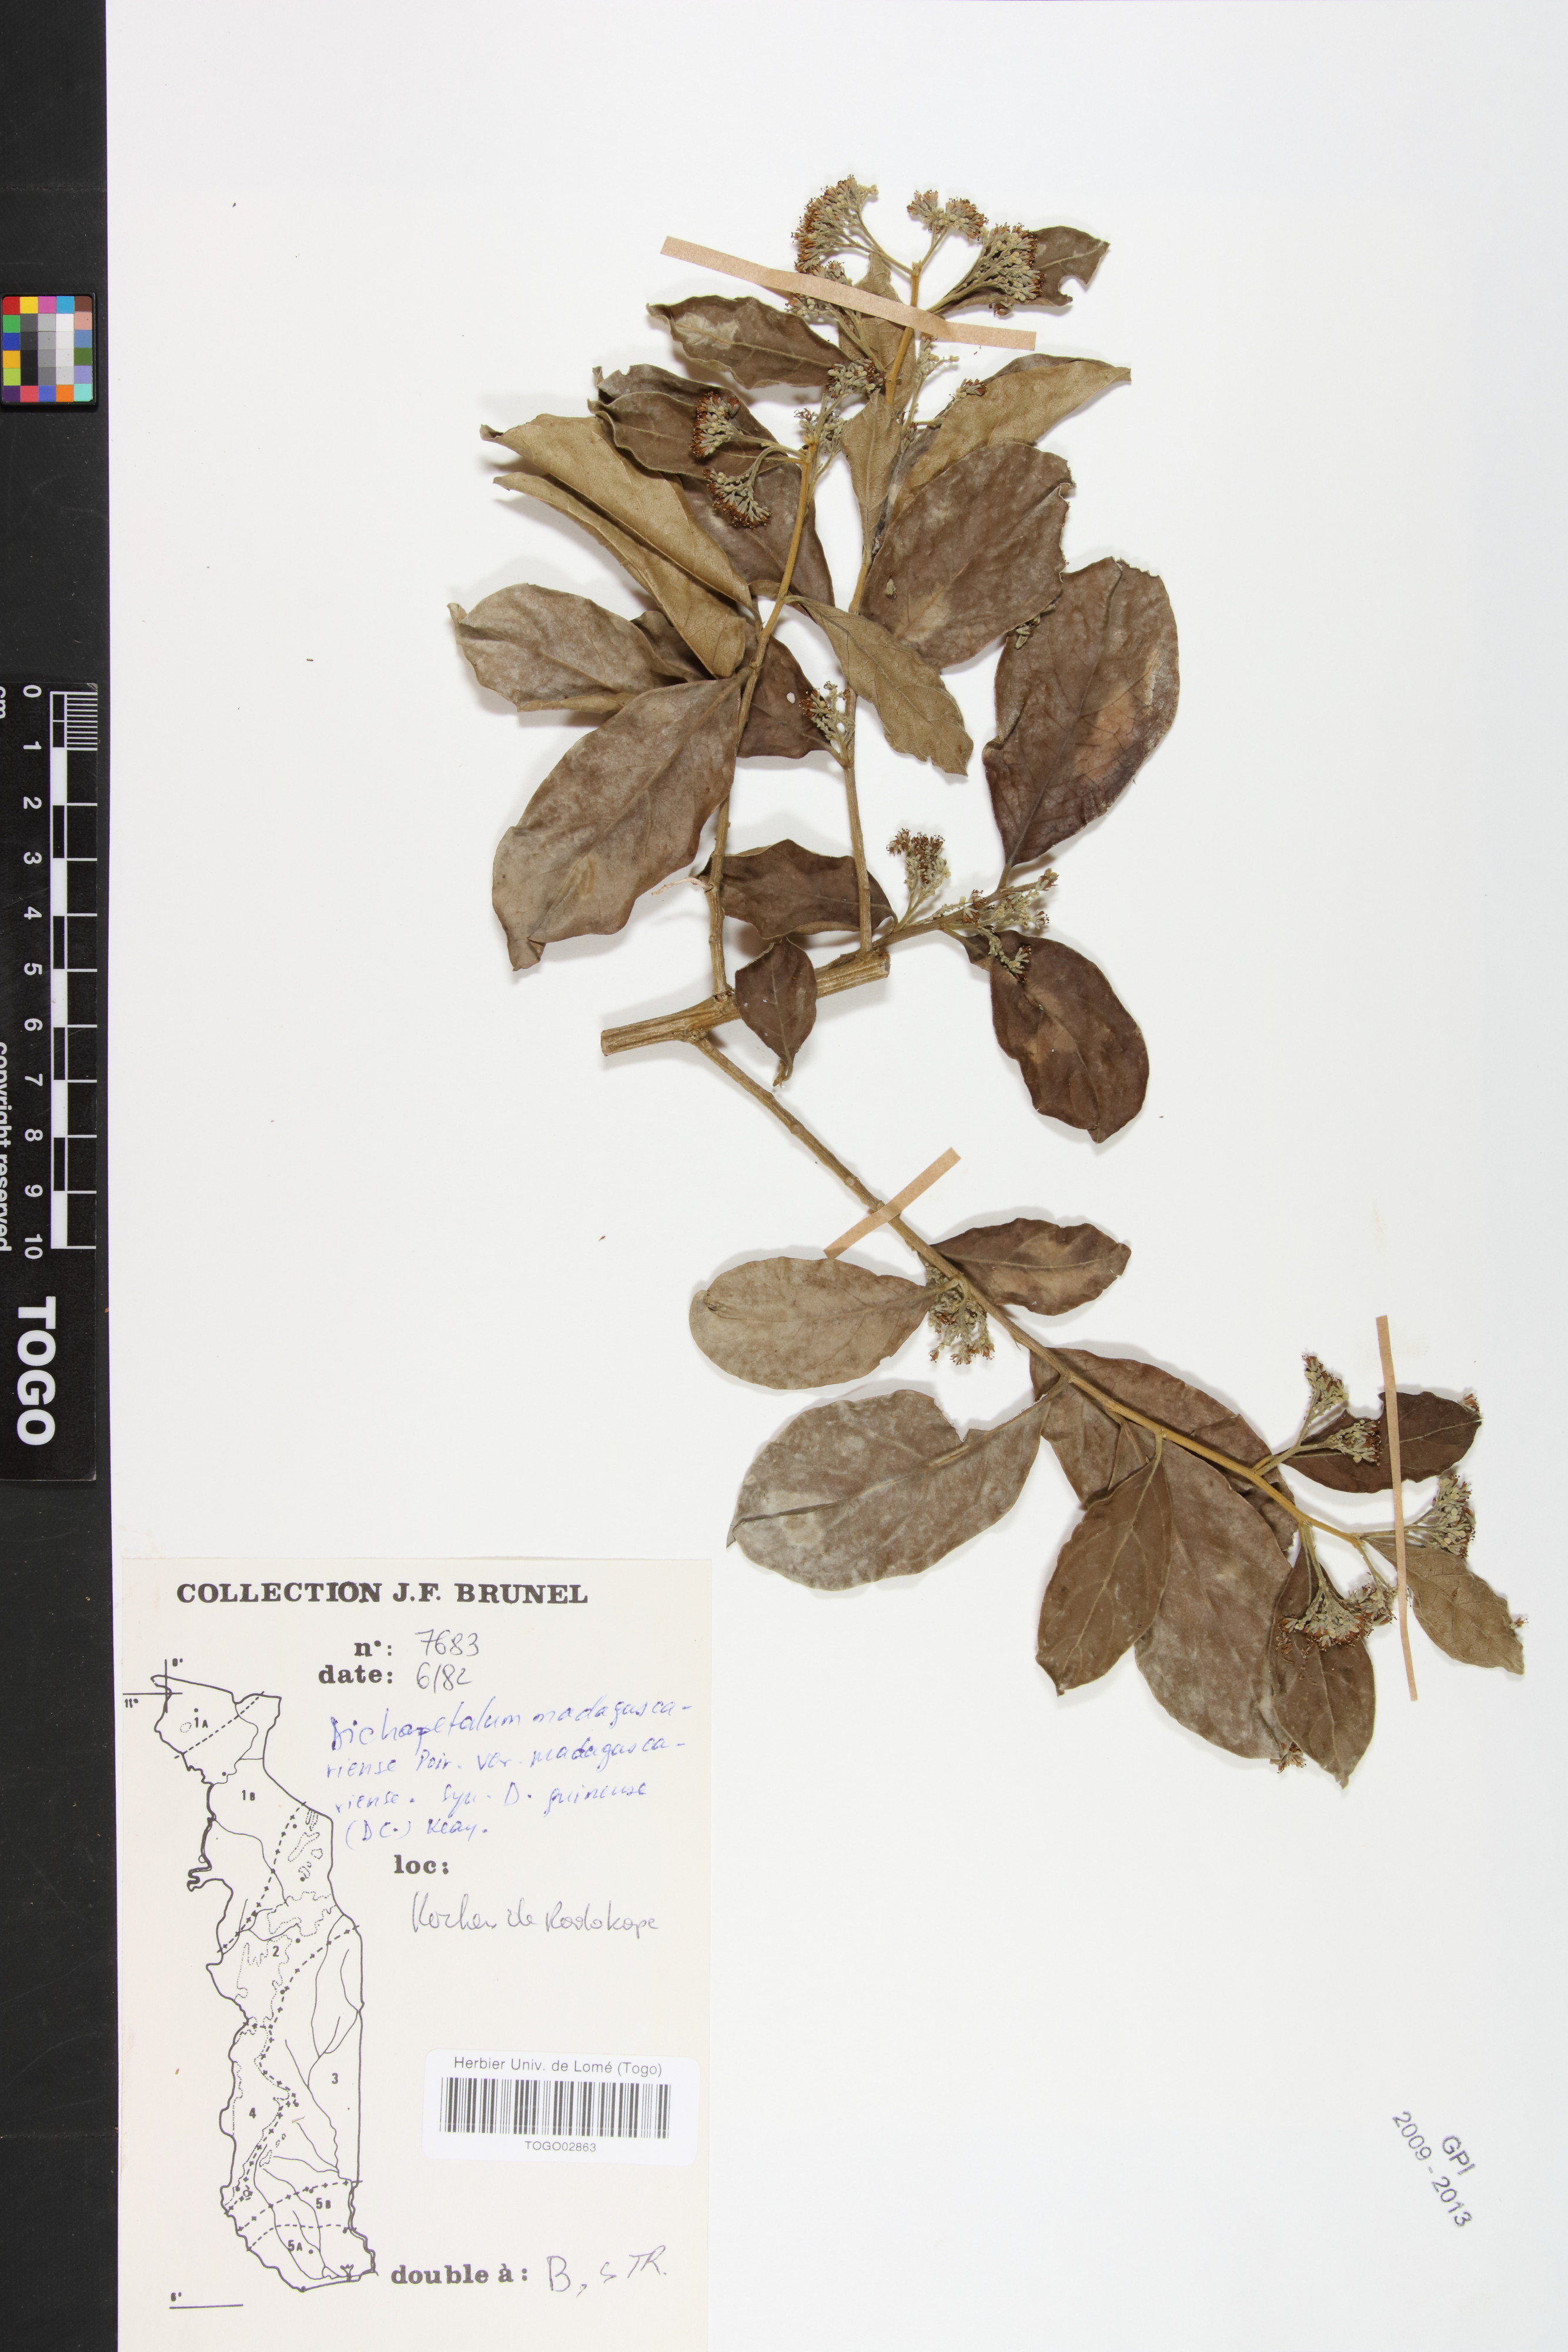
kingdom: Plantae
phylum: Tracheophyta
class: Magnoliopsida
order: Malpighiales
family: Dichapetalaceae
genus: Dichapetalum
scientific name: Dichapetalum madagascariense
